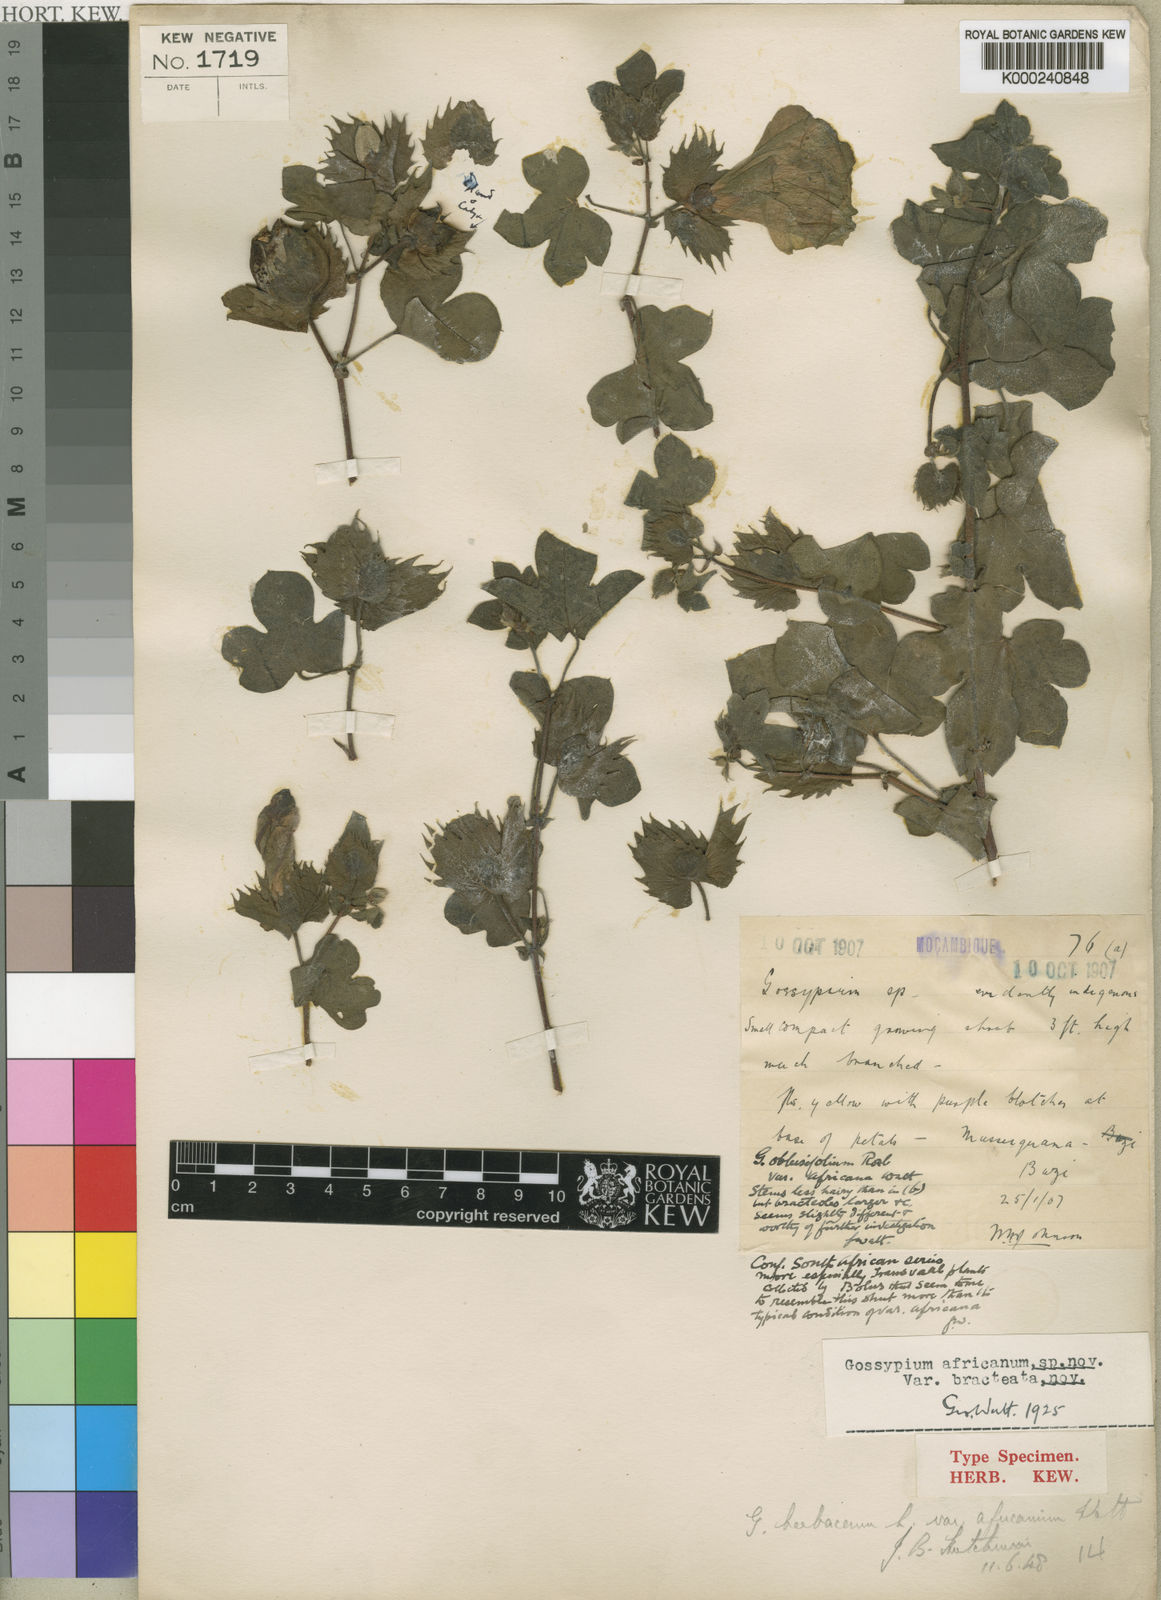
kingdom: Plantae
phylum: Tracheophyta
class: Magnoliopsida
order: Malvales
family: Malvaceae
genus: Gossypium
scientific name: Gossypium herbaceum
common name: Levant cotton
